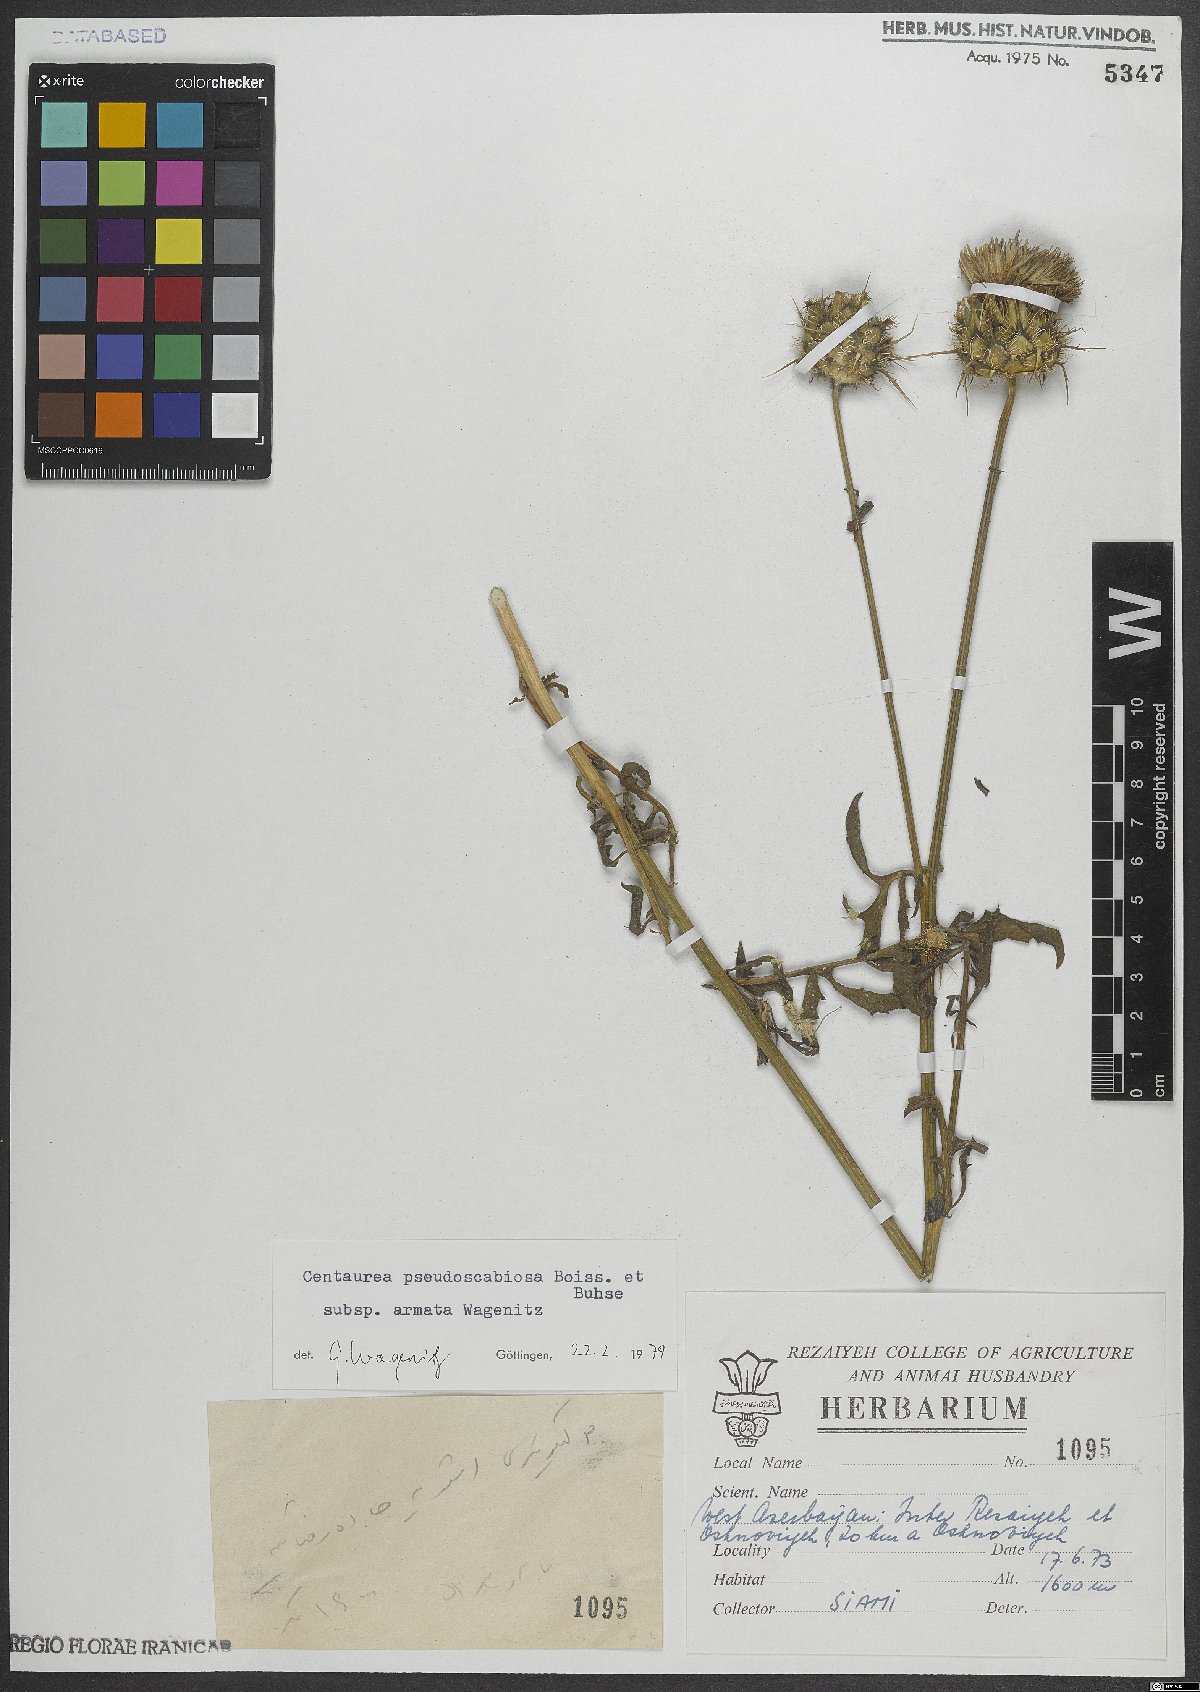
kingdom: Plantae
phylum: Tracheophyta
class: Magnoliopsida
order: Asterales
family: Asteraceae
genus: Centaurea
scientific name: Centaurea pseudoscabiosa
